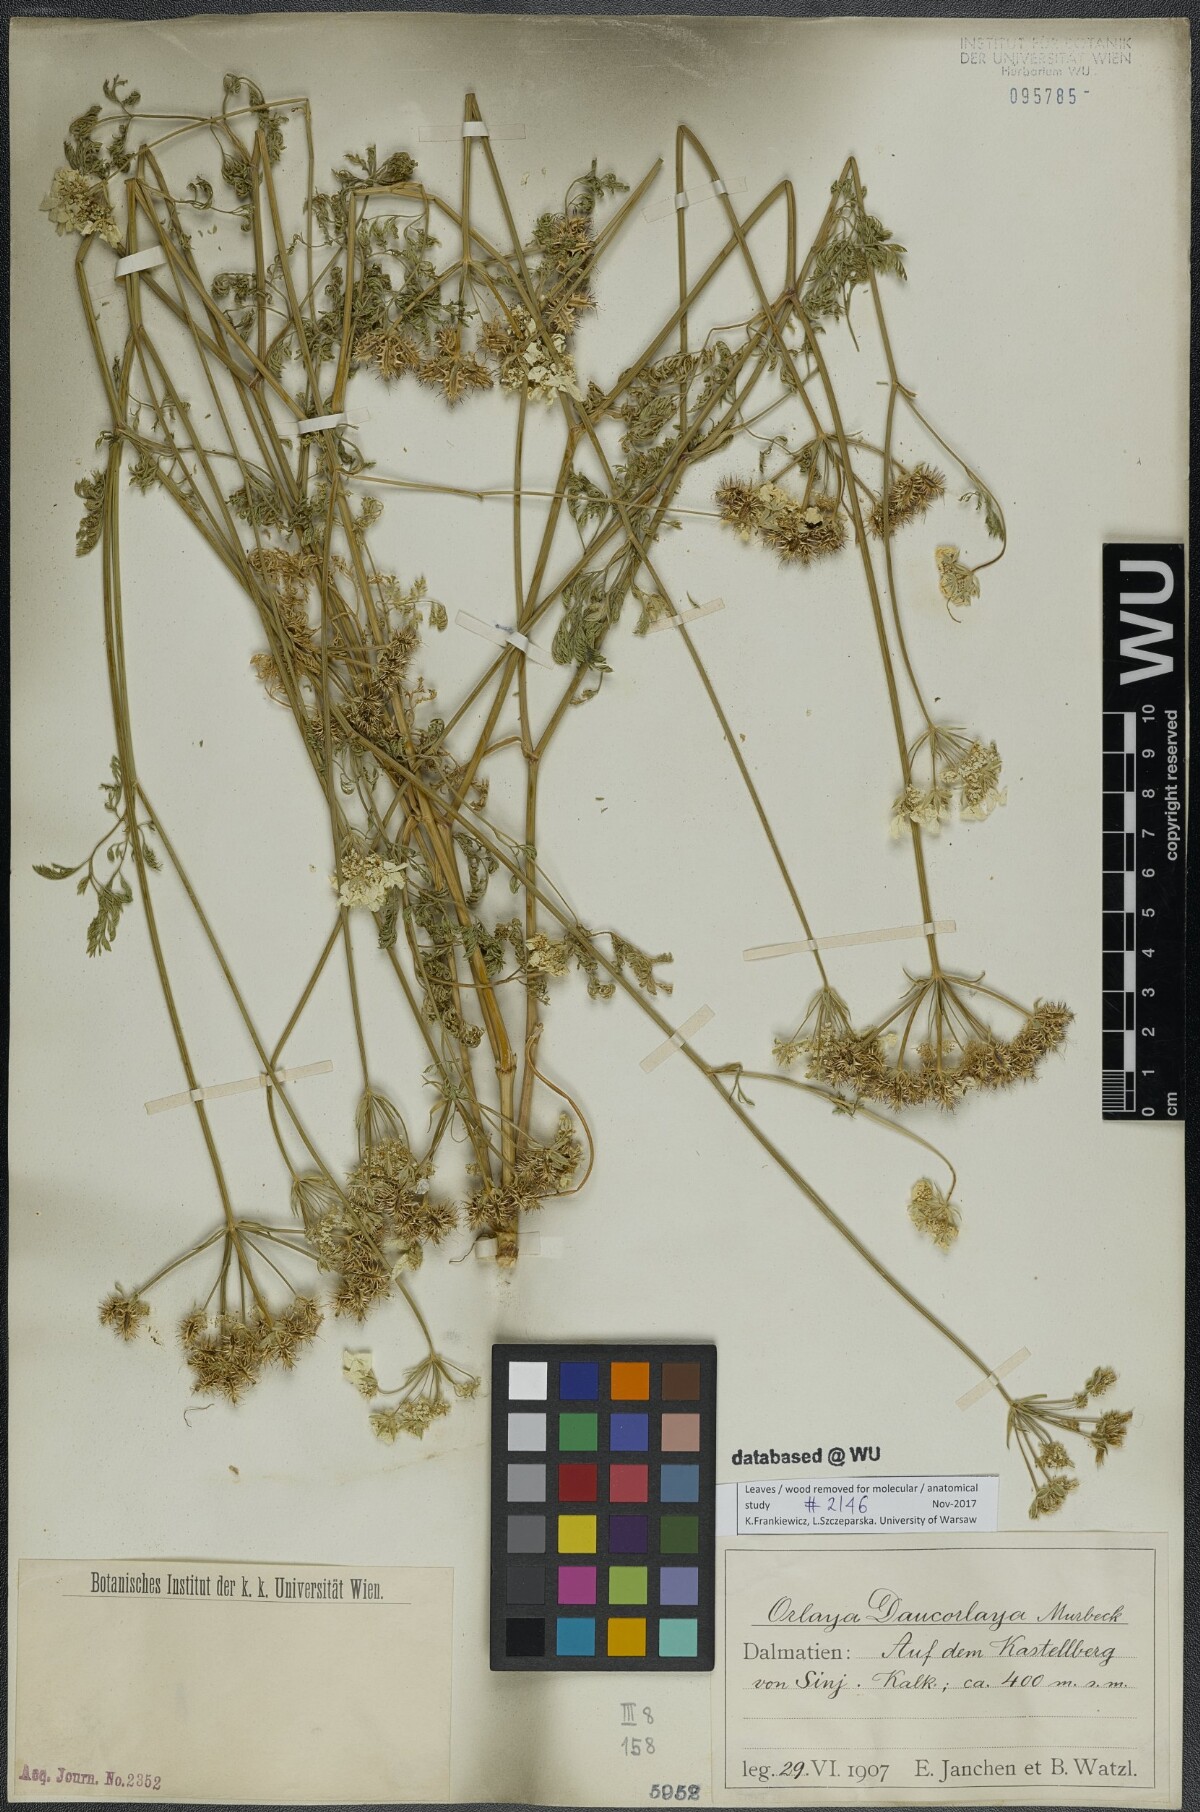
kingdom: Plantae
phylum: Tracheophyta
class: Magnoliopsida
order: Apiales
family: Apiaceae
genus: Orlaya
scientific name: Orlaya daucorlaya
